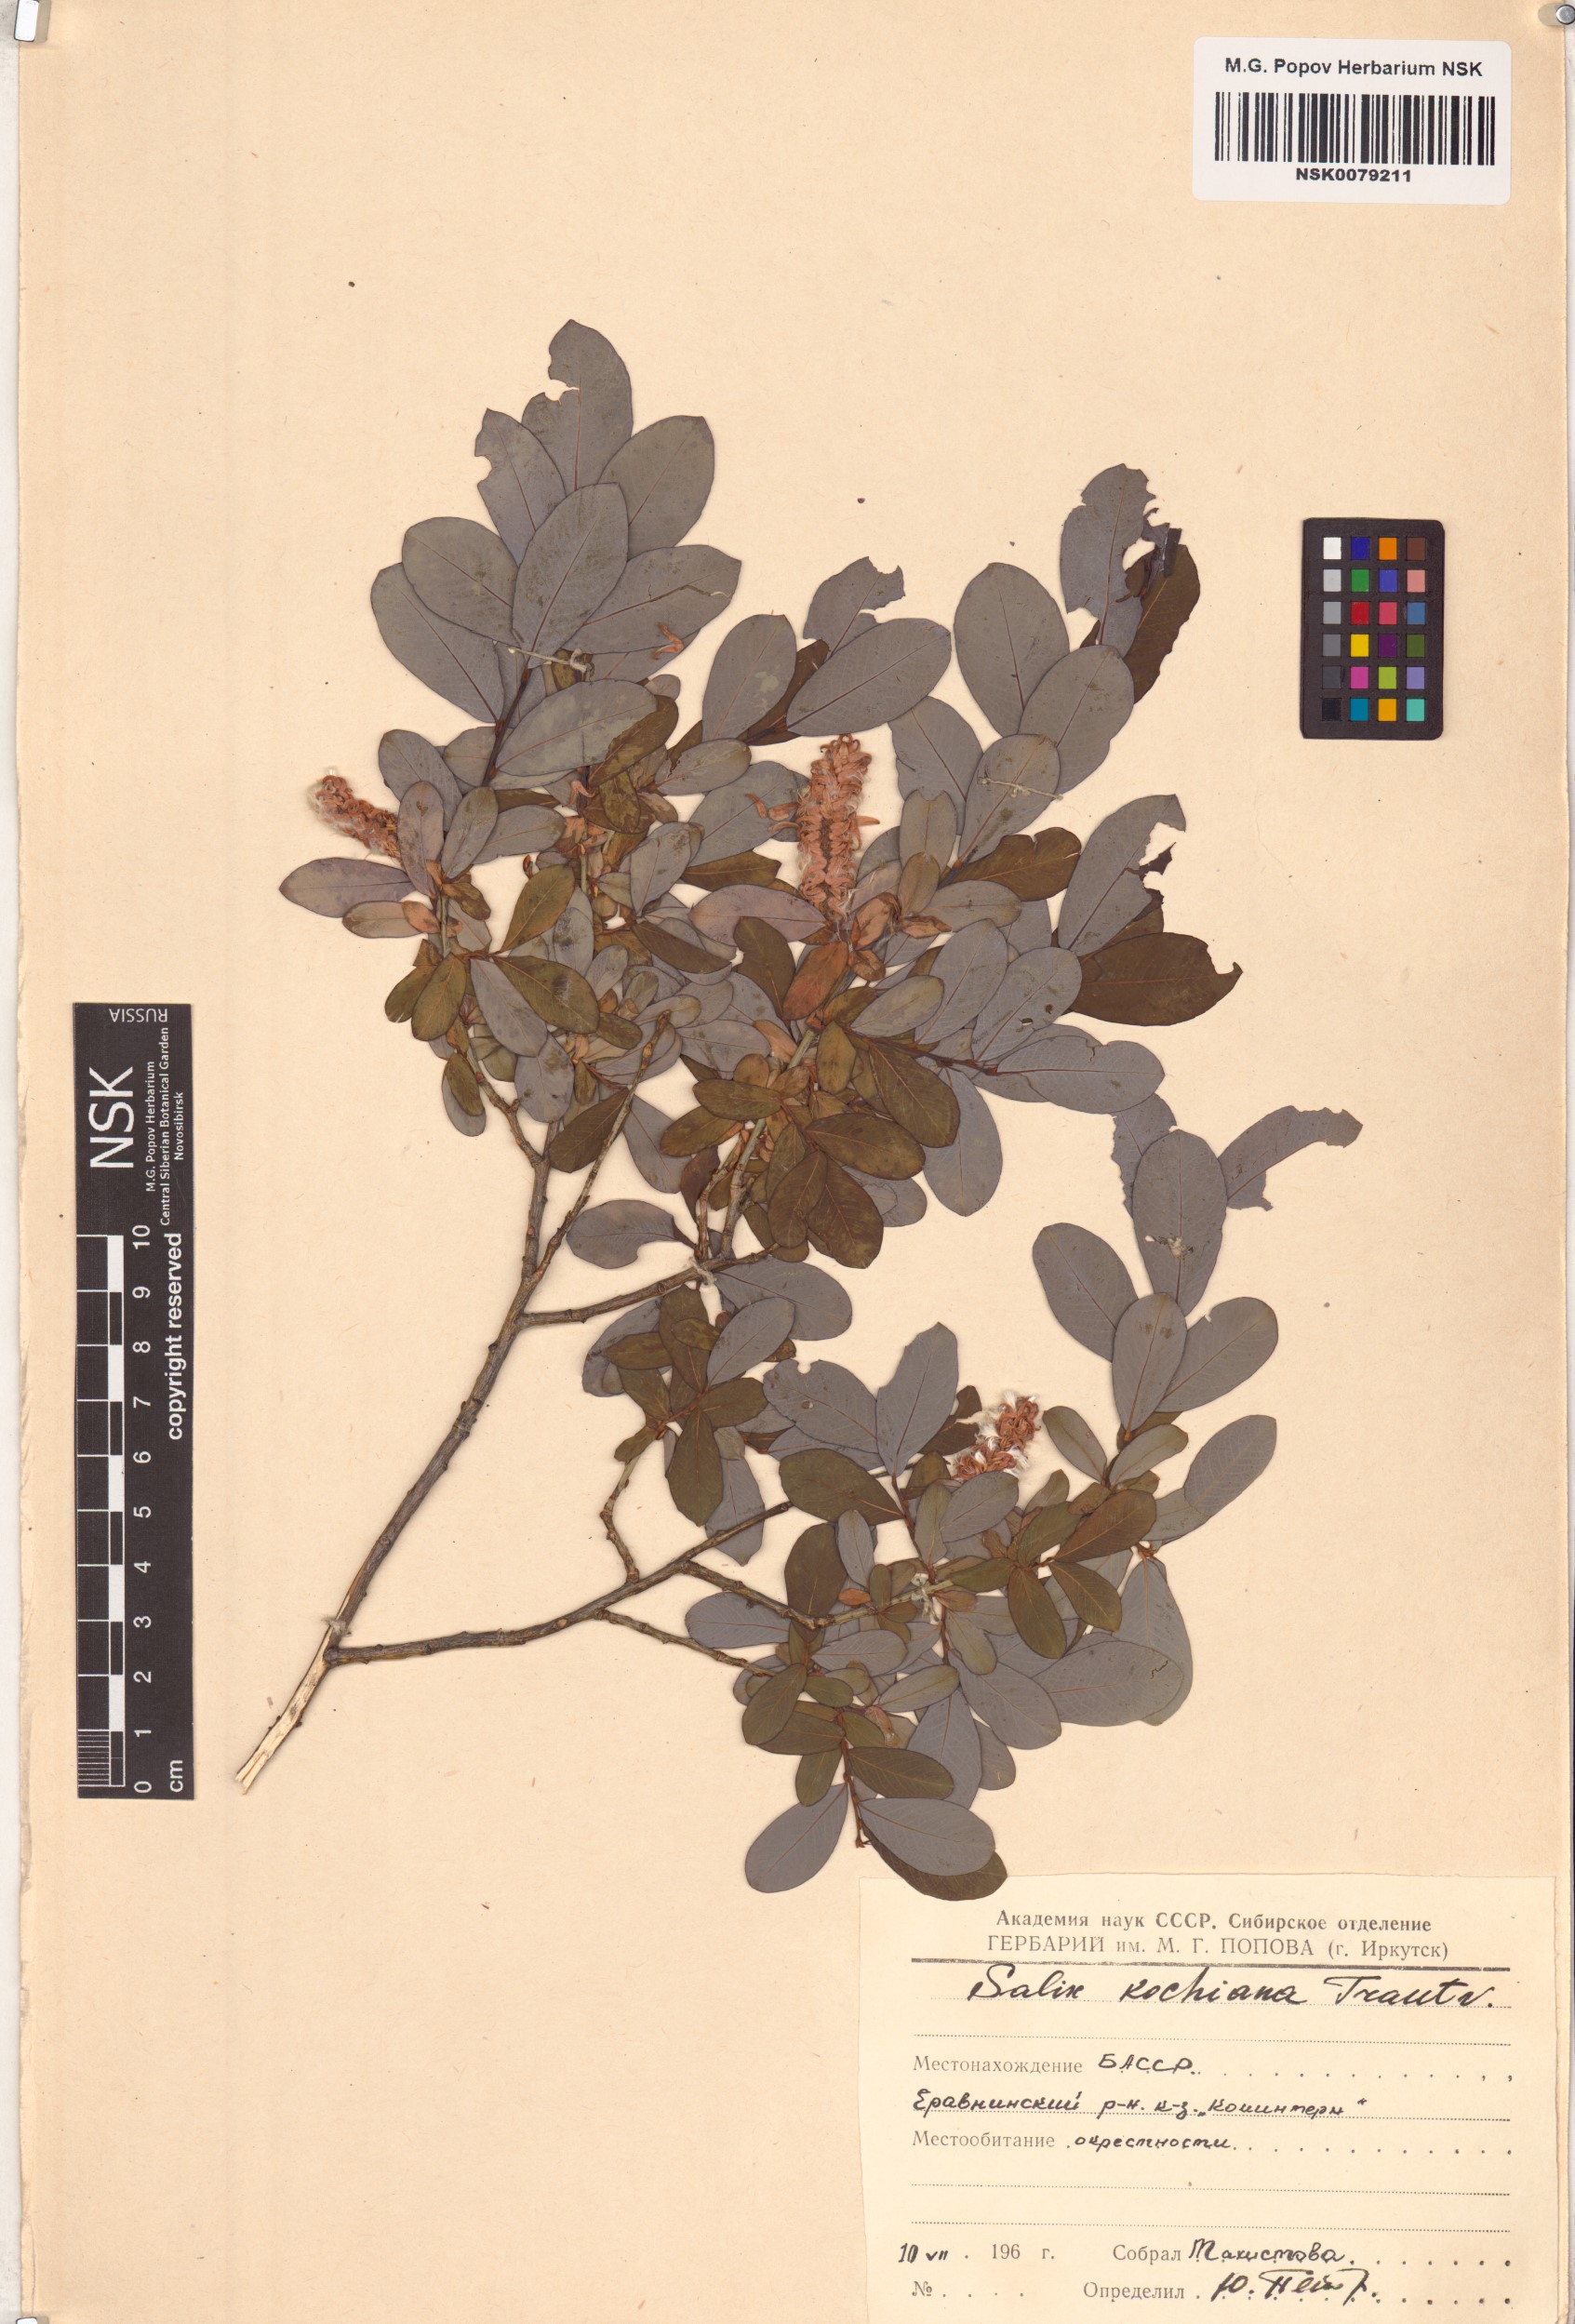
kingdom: Plantae
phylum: Tracheophyta
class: Magnoliopsida
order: Malpighiales
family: Salicaceae
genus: Salix
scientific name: Salix kochiana
